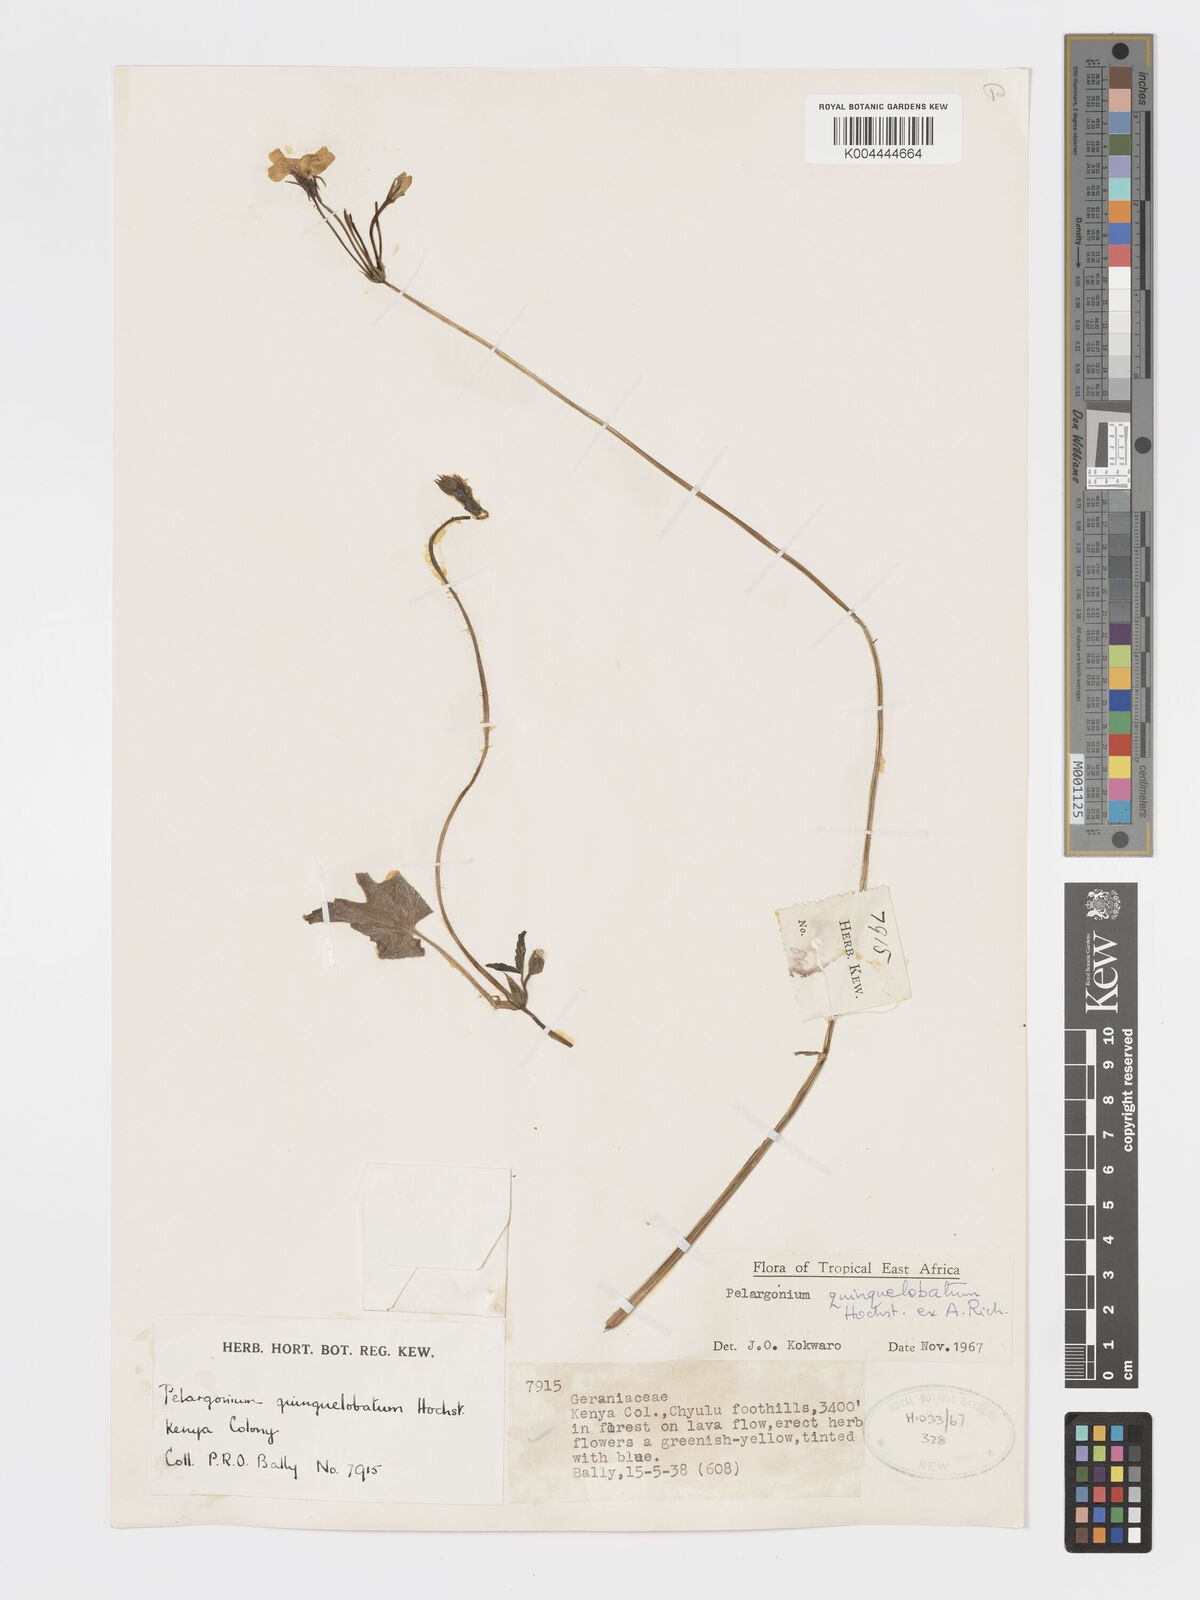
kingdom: Plantae
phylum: Tracheophyta
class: Magnoliopsida
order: Geraniales
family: Geraniaceae
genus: Pelargonium
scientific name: Pelargonium quinquelobatum
